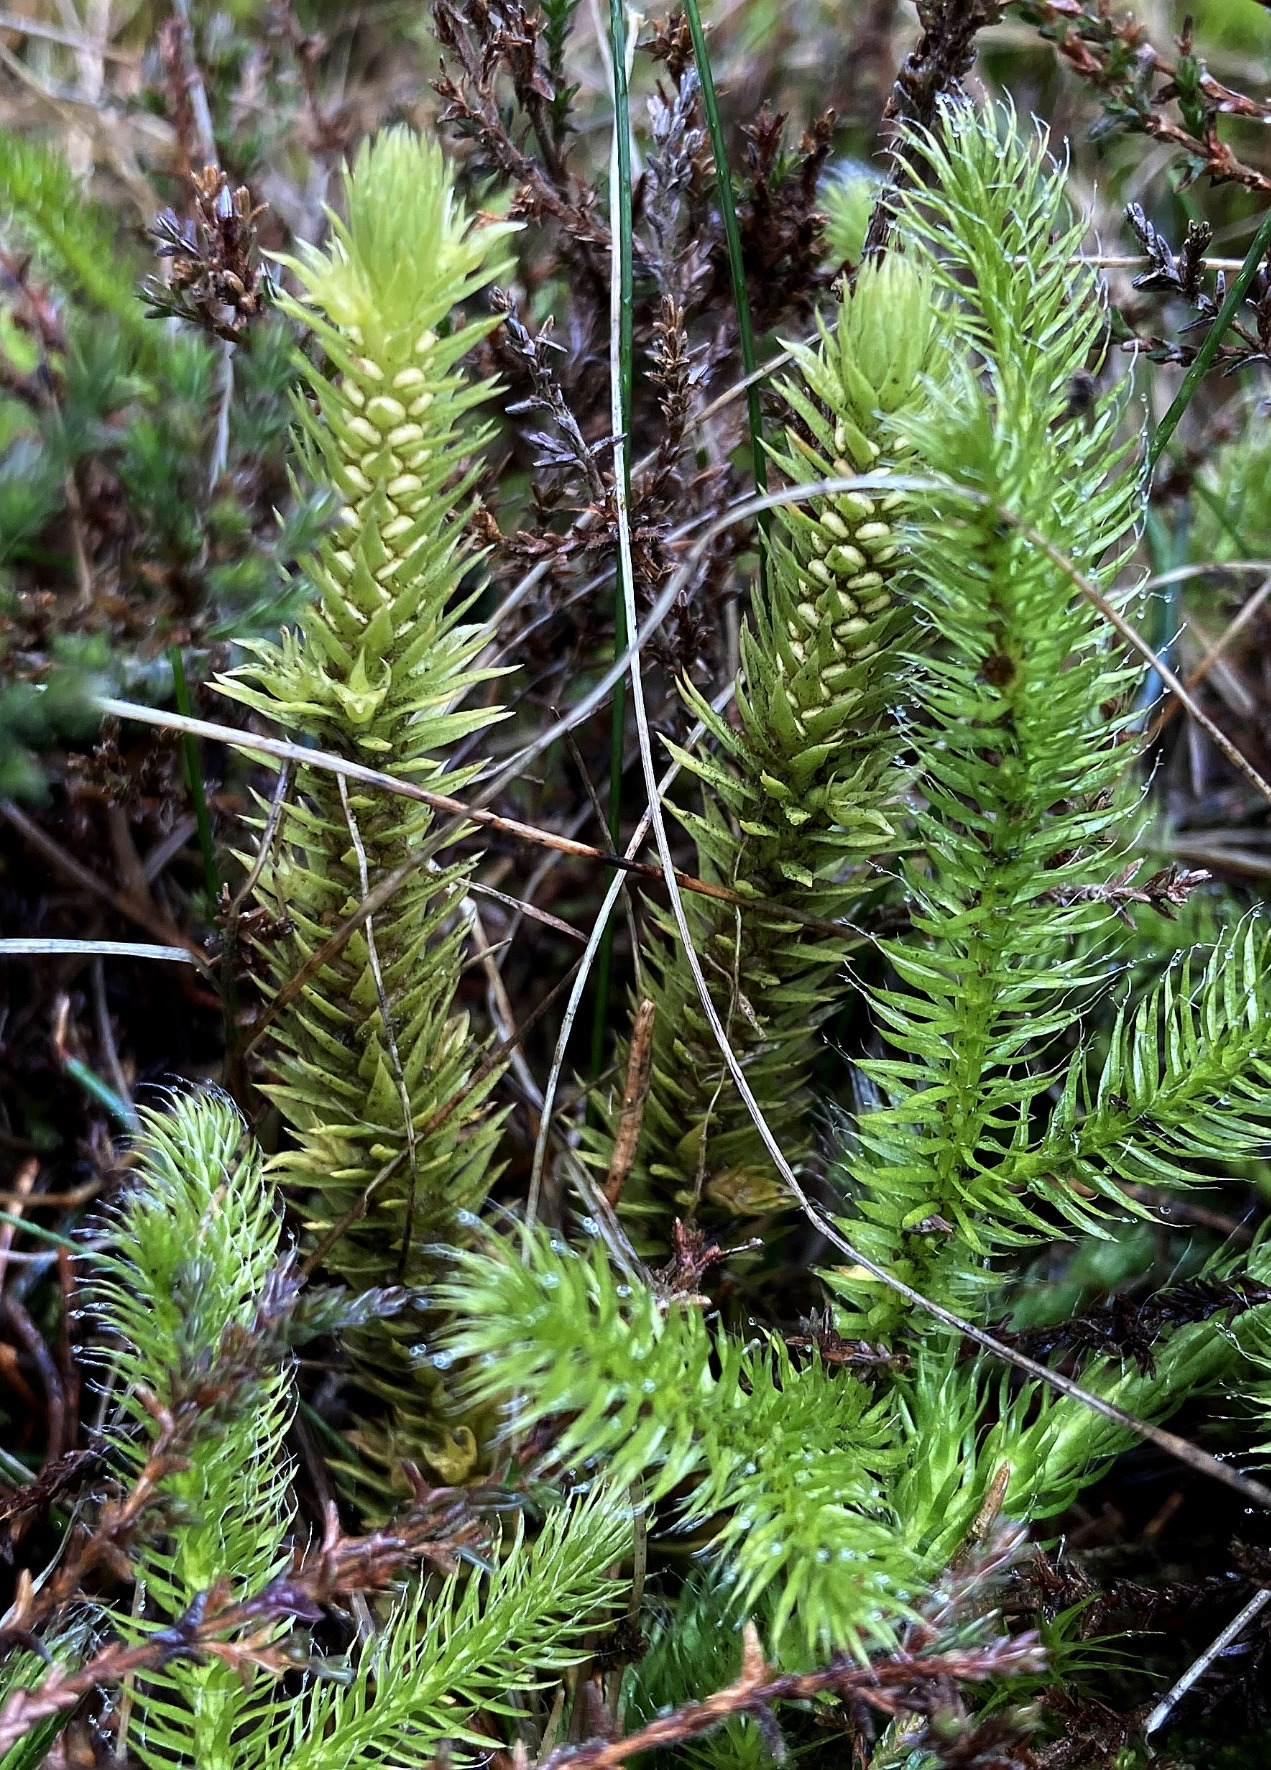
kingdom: Plantae
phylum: Tracheophyta
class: Lycopodiopsida
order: Lycopodiales
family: Lycopodiaceae
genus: Huperzia
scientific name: Huperzia selago
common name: Otteradet ulvefod
